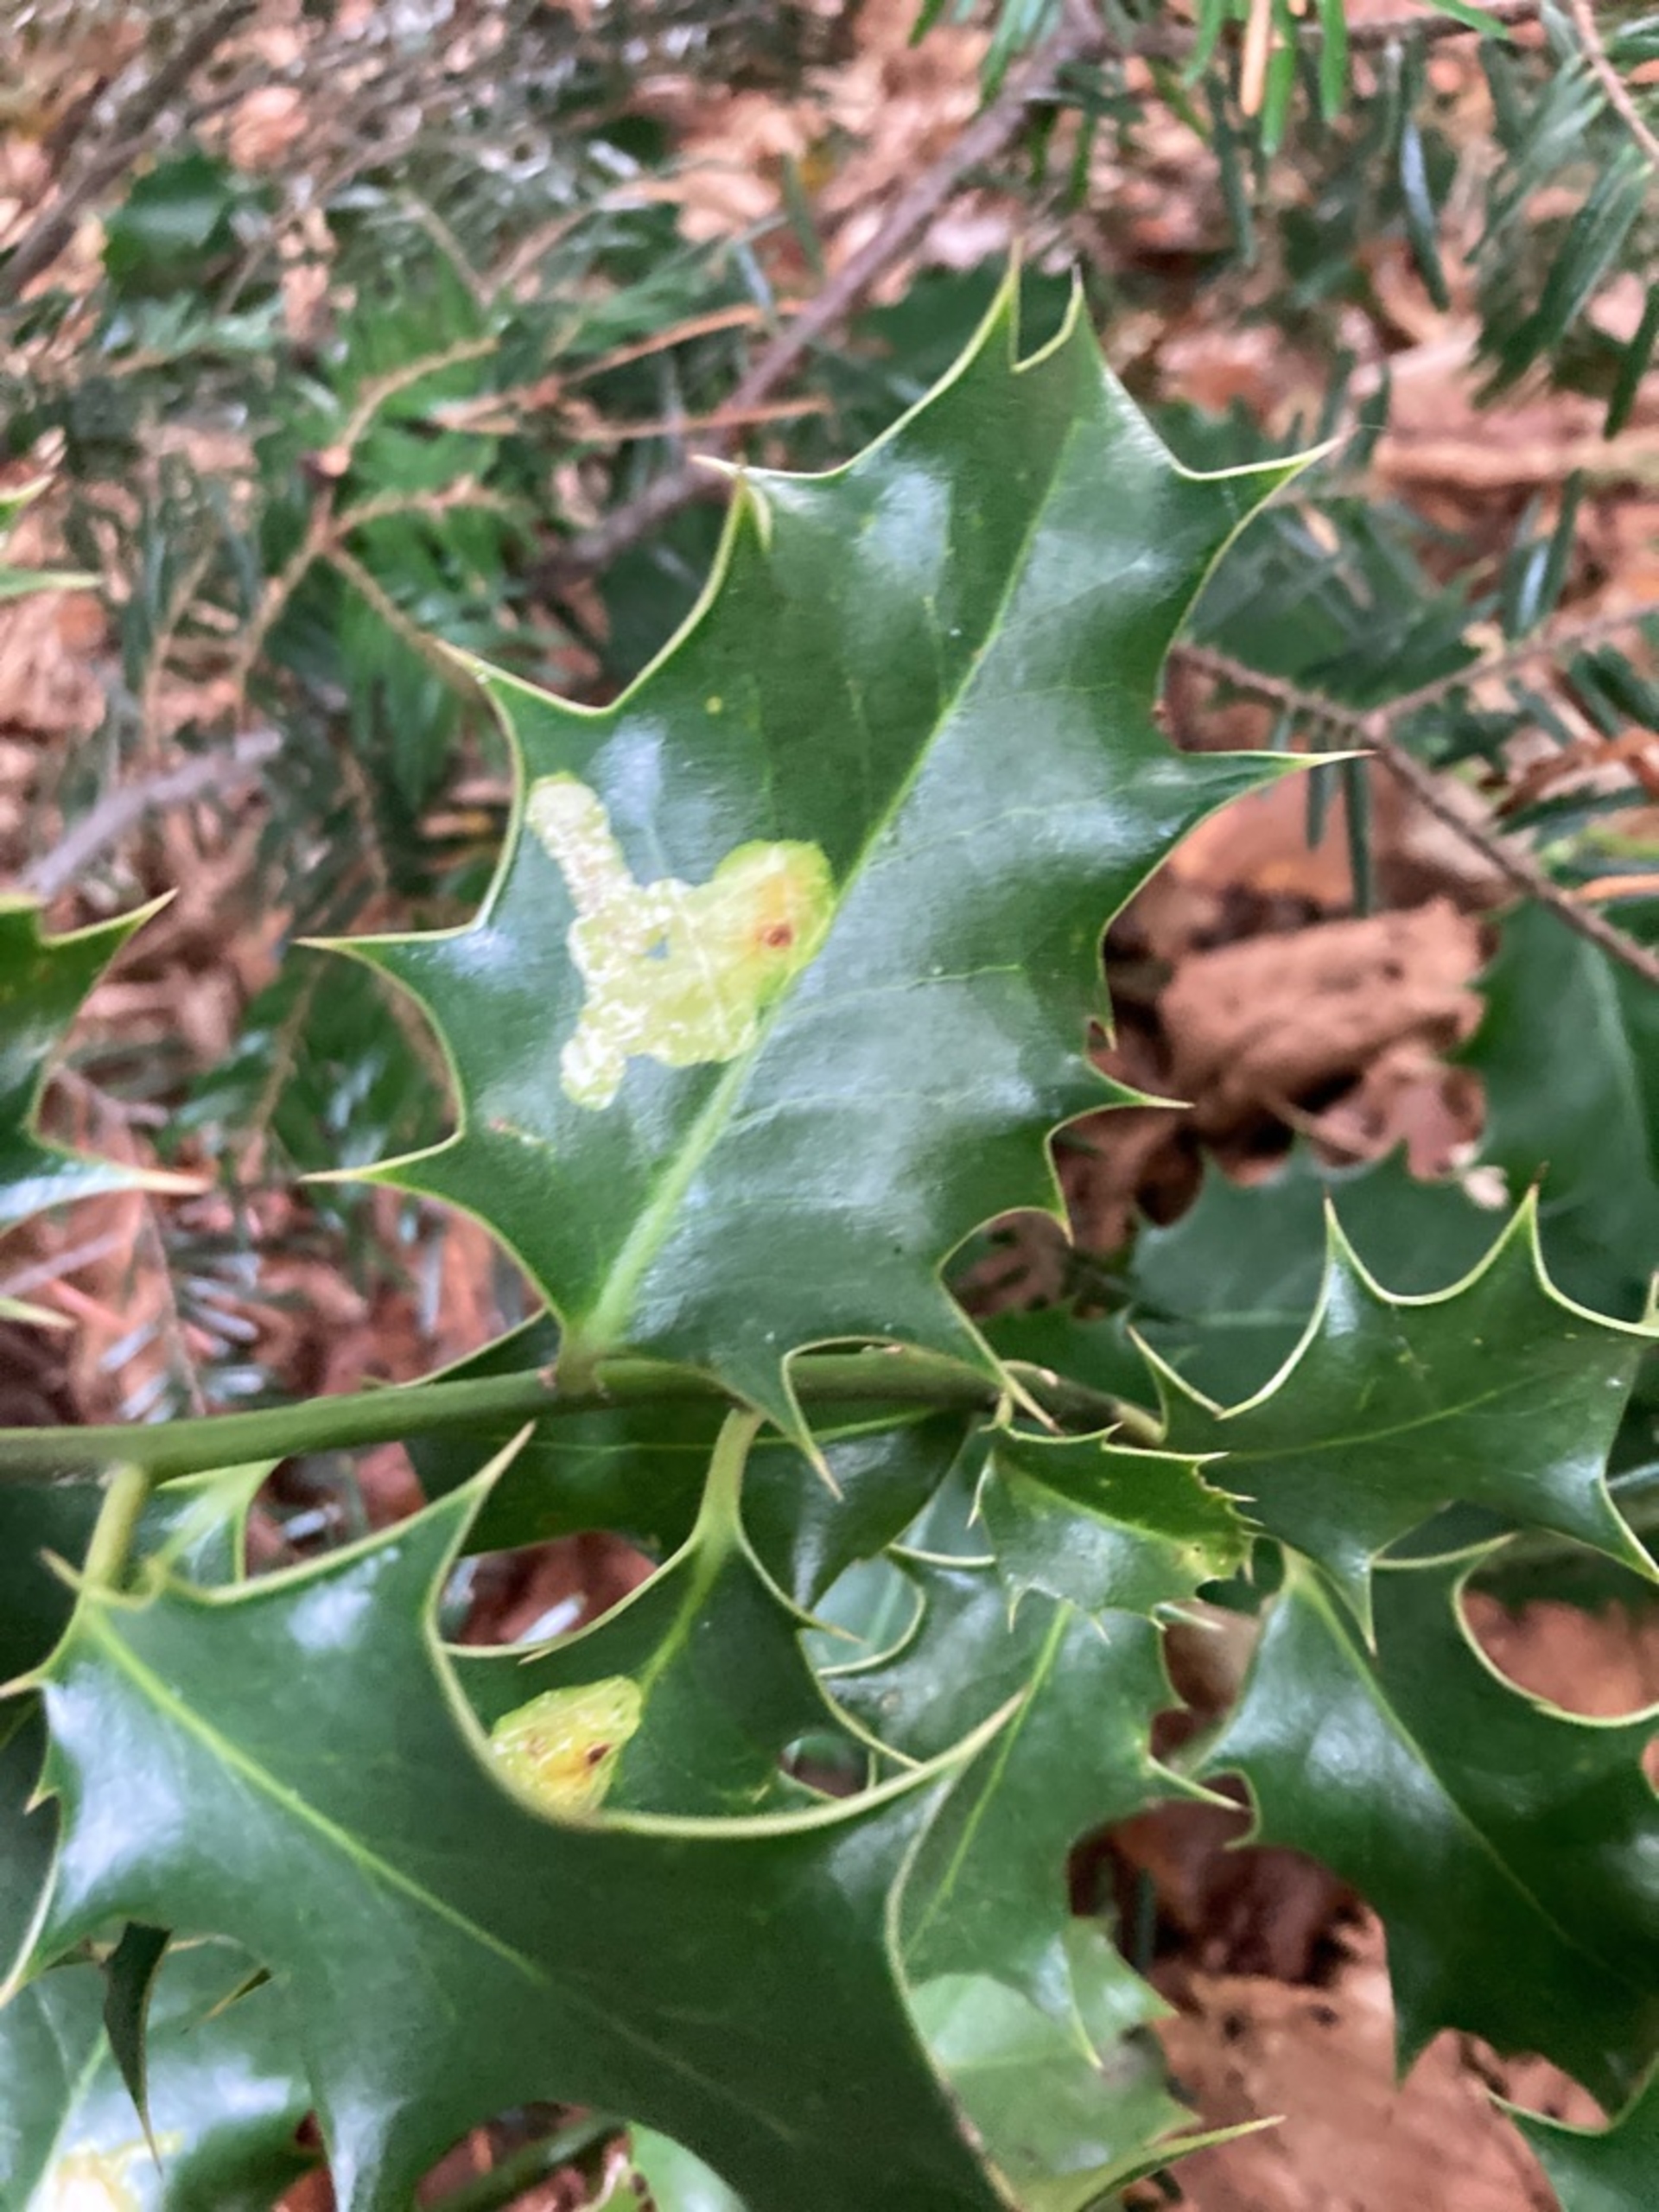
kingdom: Animalia
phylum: Arthropoda
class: Insecta
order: Diptera
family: Agromyzidae
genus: Phytomyza
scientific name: Phytomyza ilicis
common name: Kristtornminérflue
